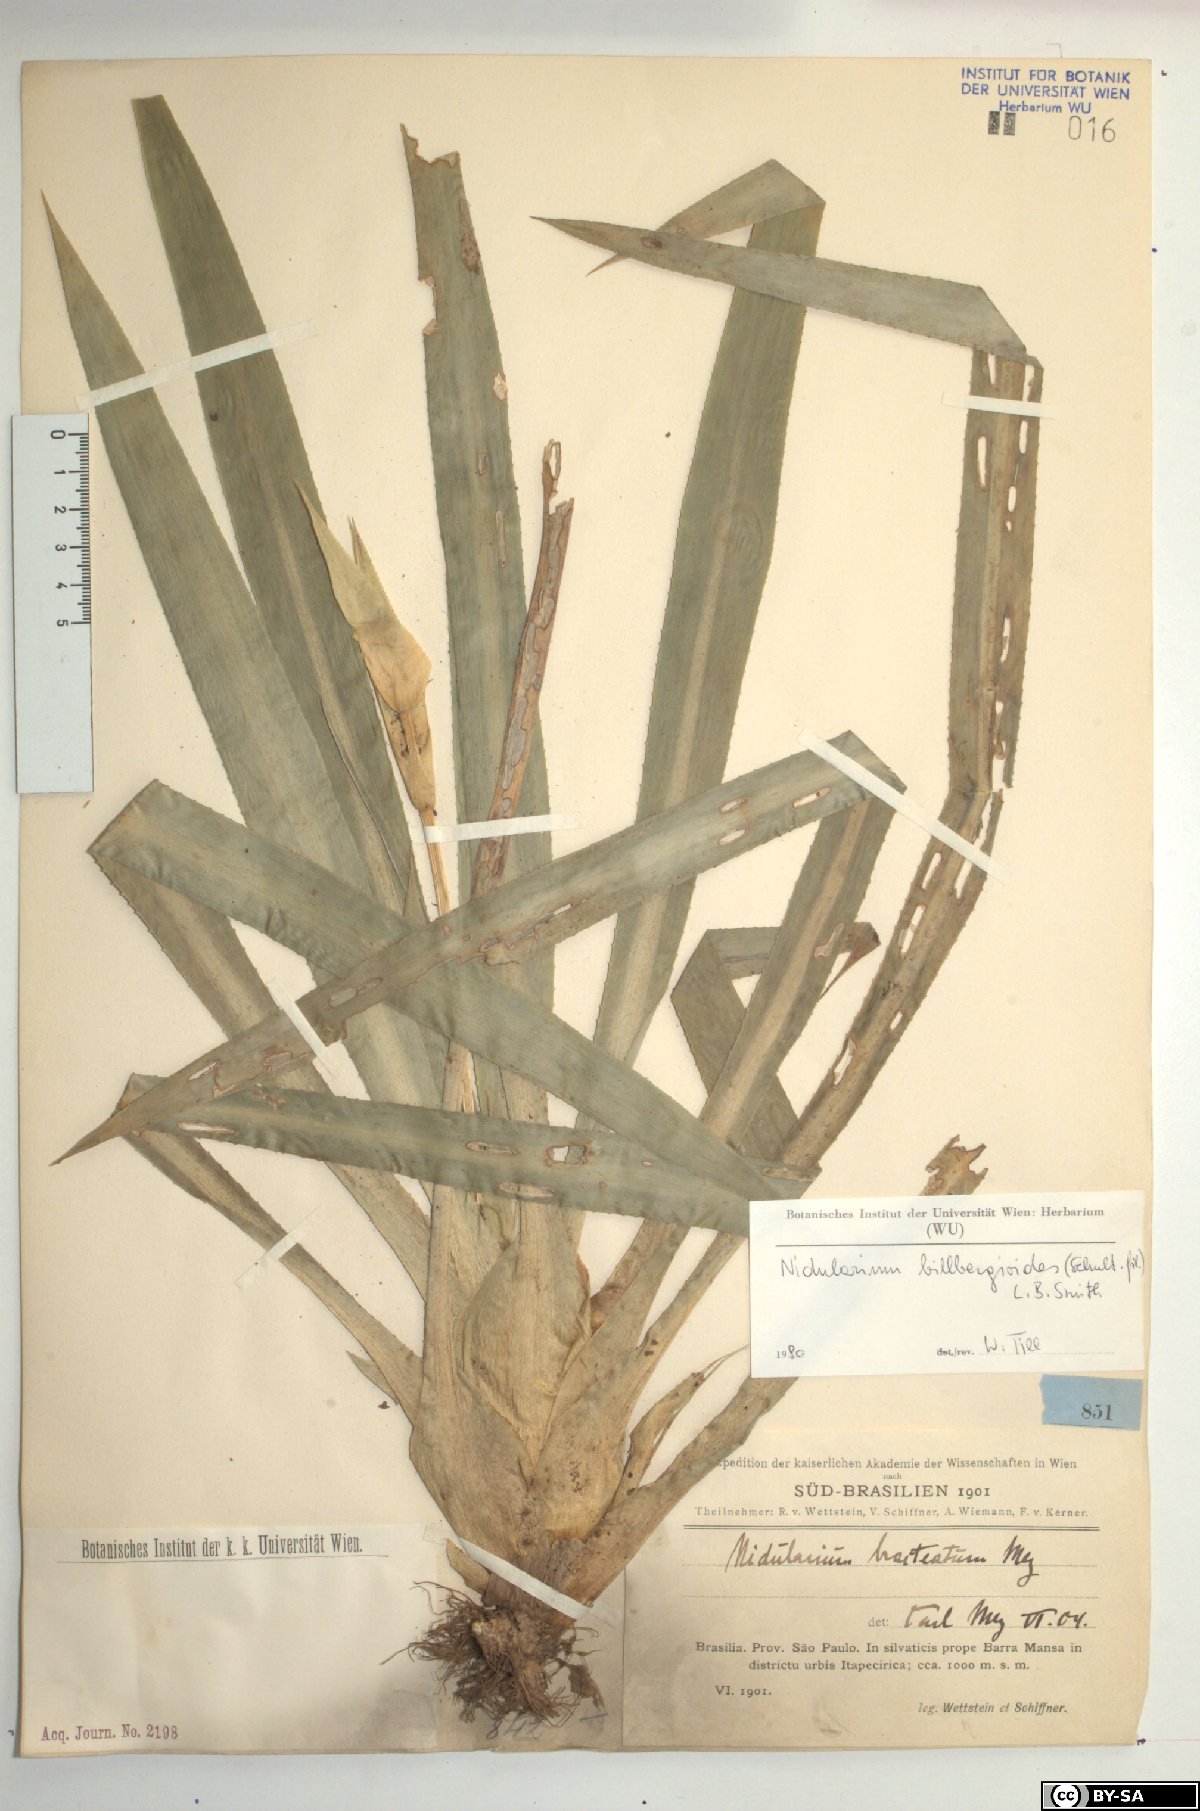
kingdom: Plantae
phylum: Tracheophyta
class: Liliopsida
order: Poales
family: Bromeliaceae
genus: Canistropsis
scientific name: Canistropsis billbergioides
